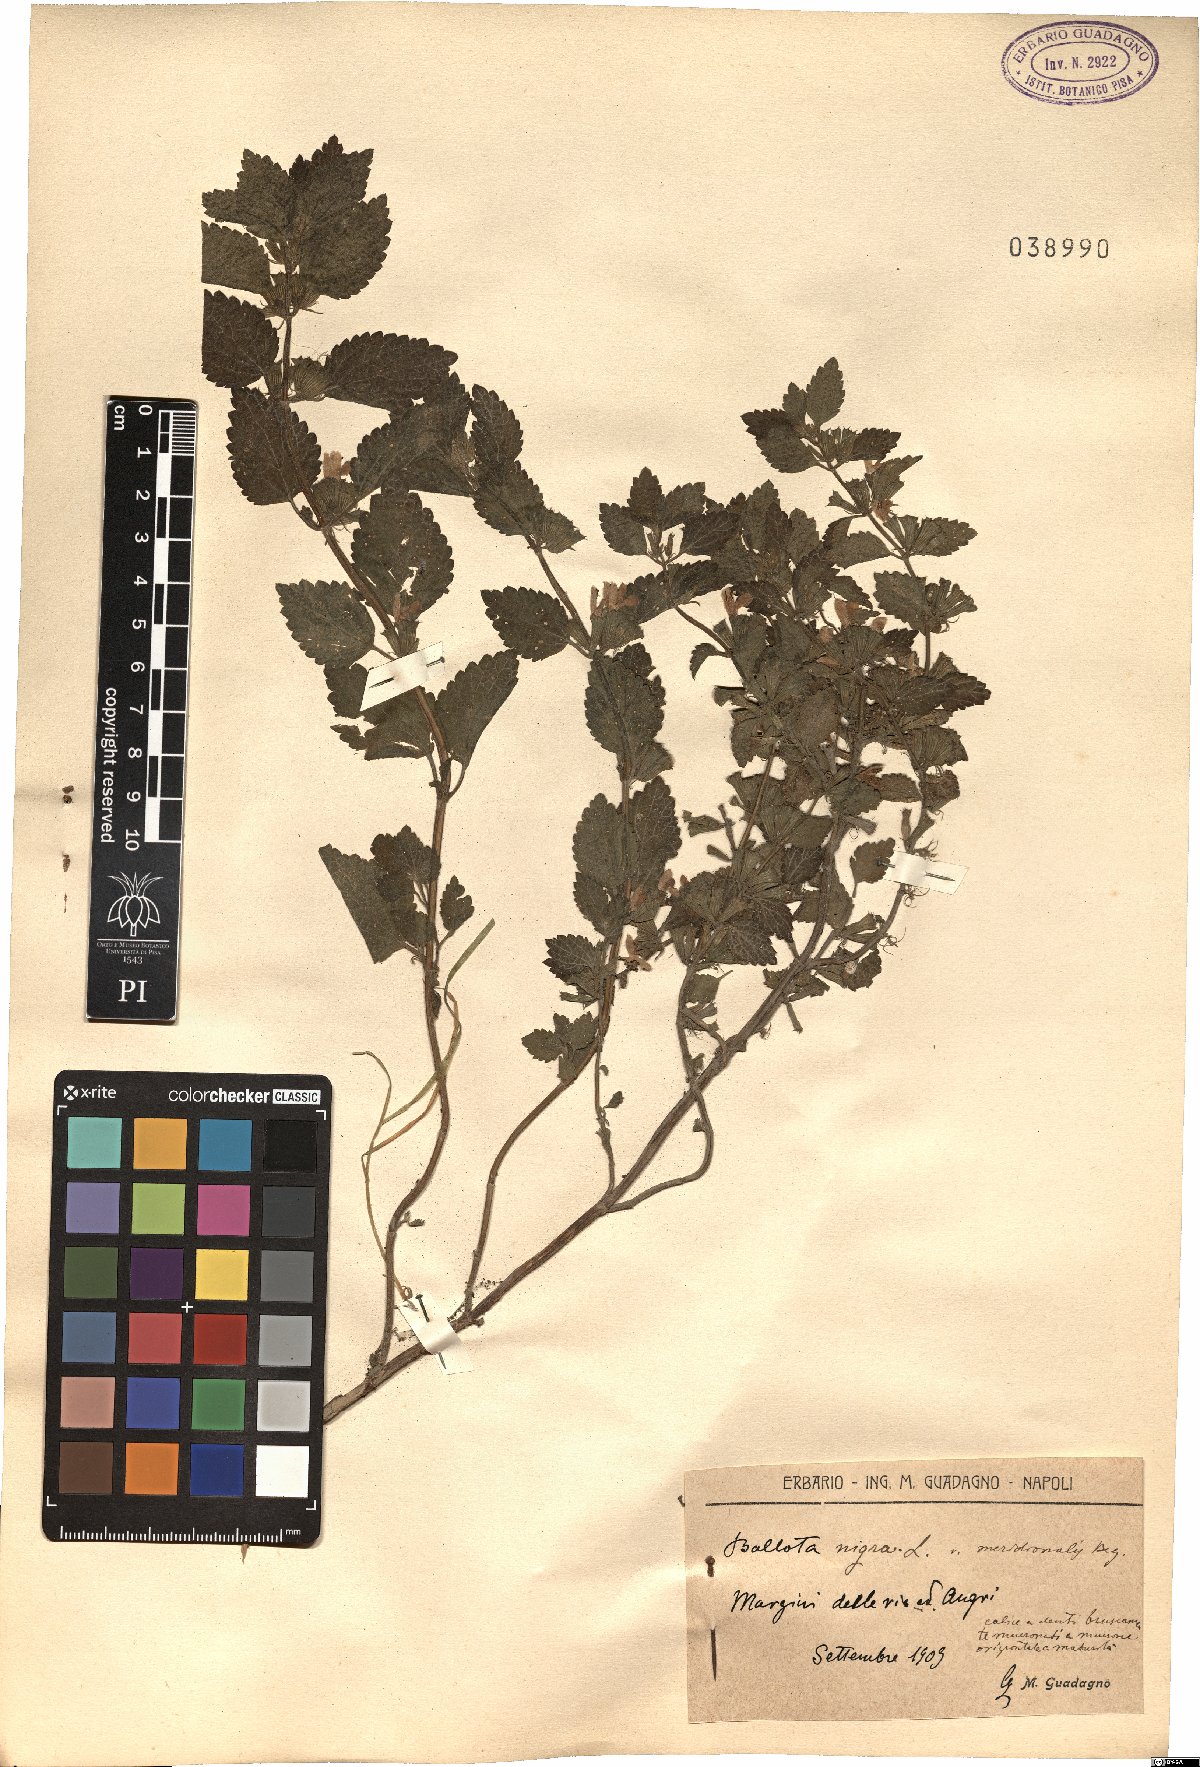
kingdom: Plantae
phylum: Tracheophyta
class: Magnoliopsida
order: Lamiales
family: Lamiaceae
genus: Ballota
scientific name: Ballota nigra
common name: Black horehound
